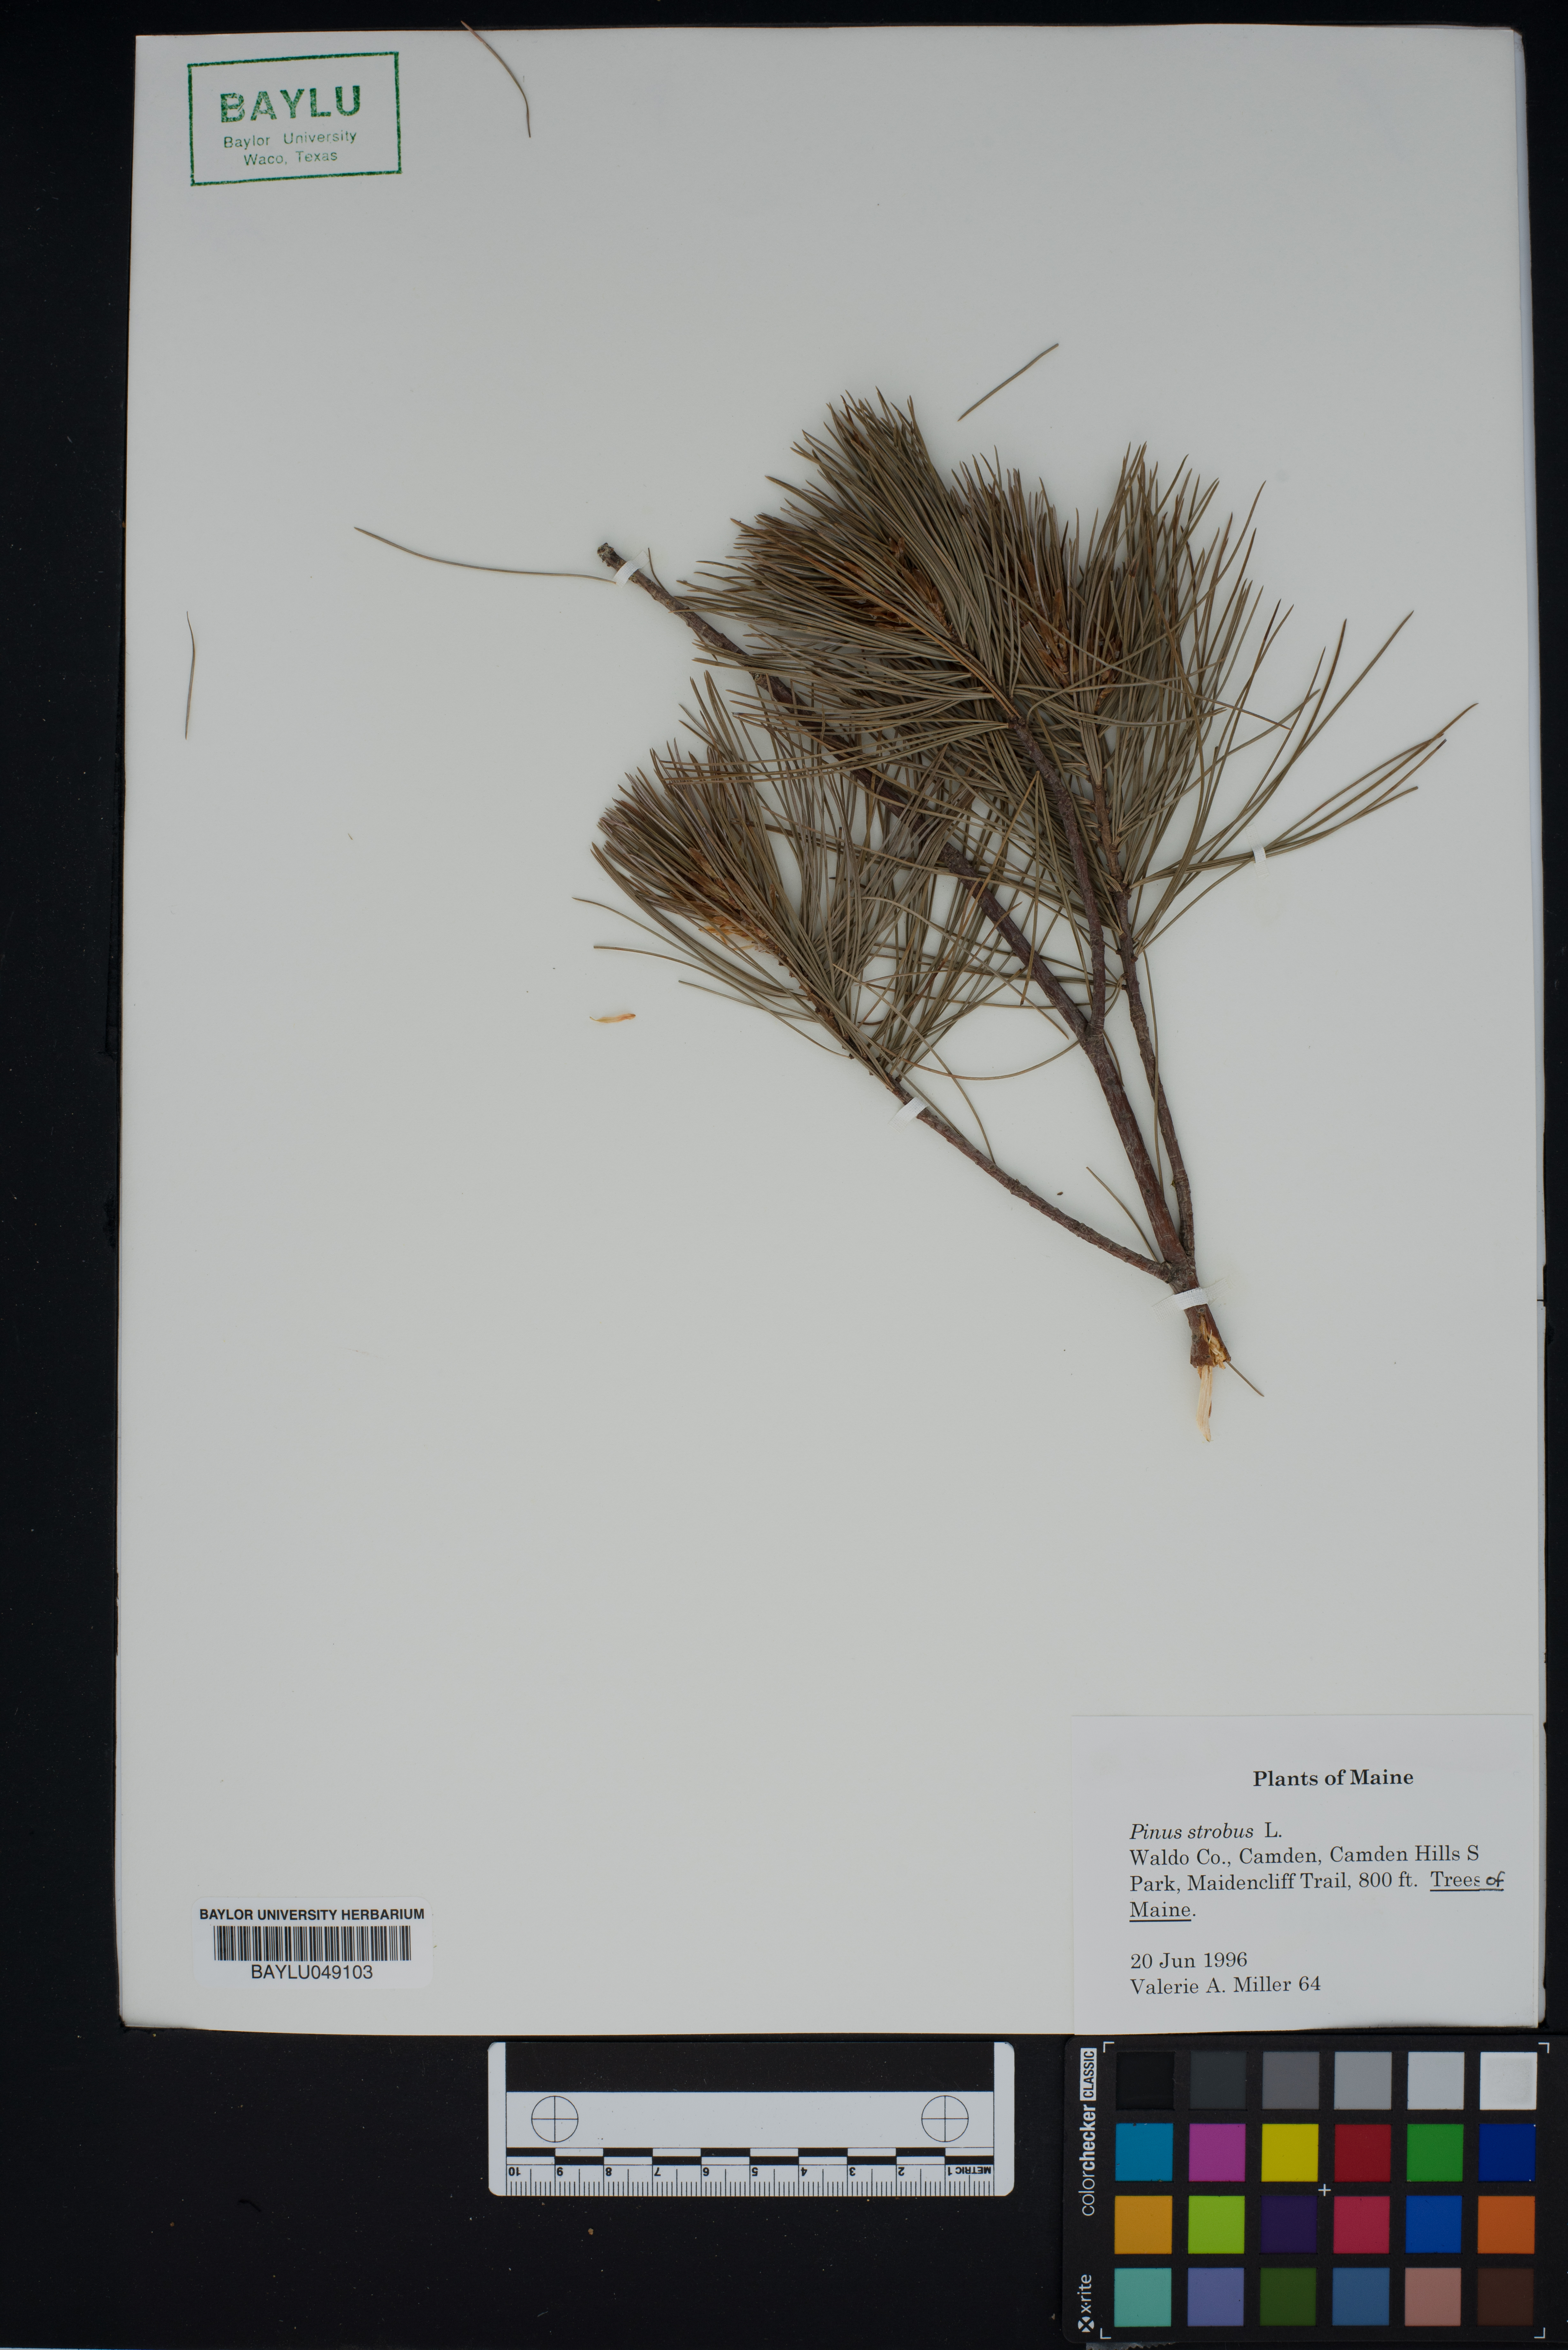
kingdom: Plantae
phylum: Tracheophyta
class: Pinopsida
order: Pinales
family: Pinaceae
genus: Pinus
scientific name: Pinus strobus
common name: Weymouth pine
